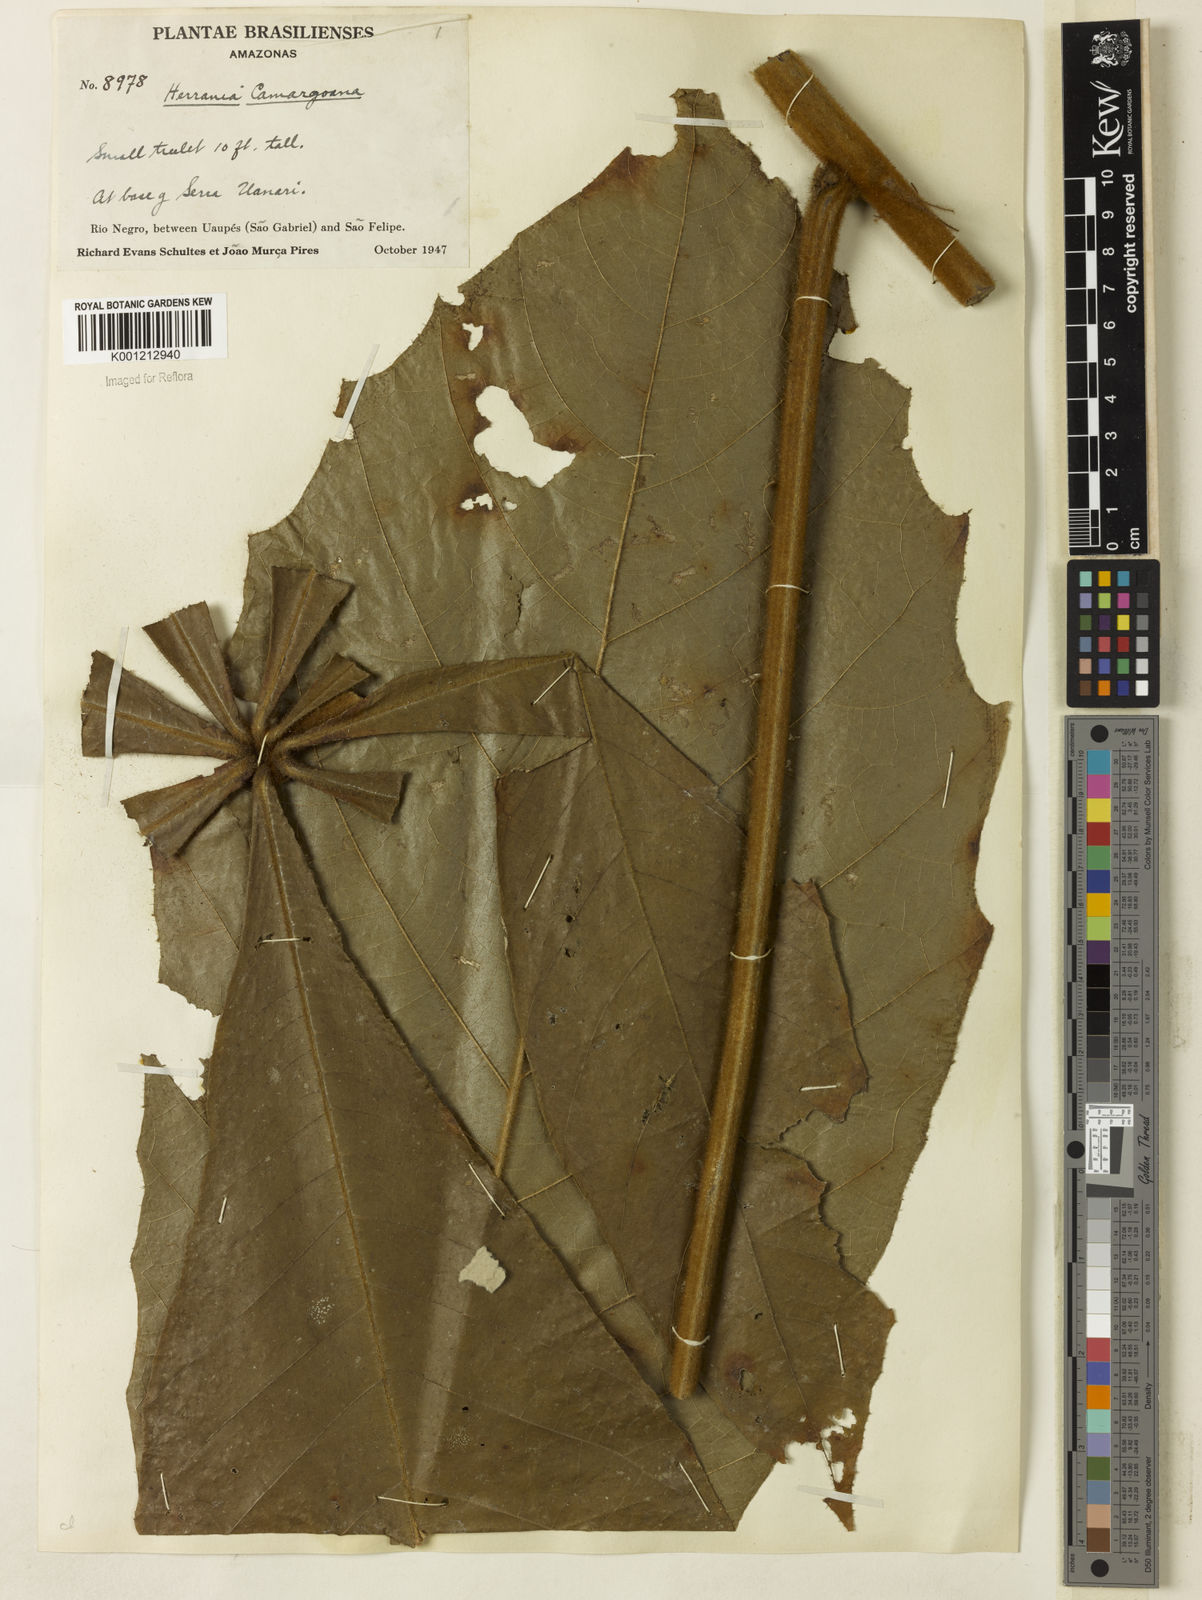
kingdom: Plantae
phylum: Tracheophyta
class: Magnoliopsida
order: Malvales
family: Malvaceae
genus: Herrania
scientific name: Herrania camargoana
